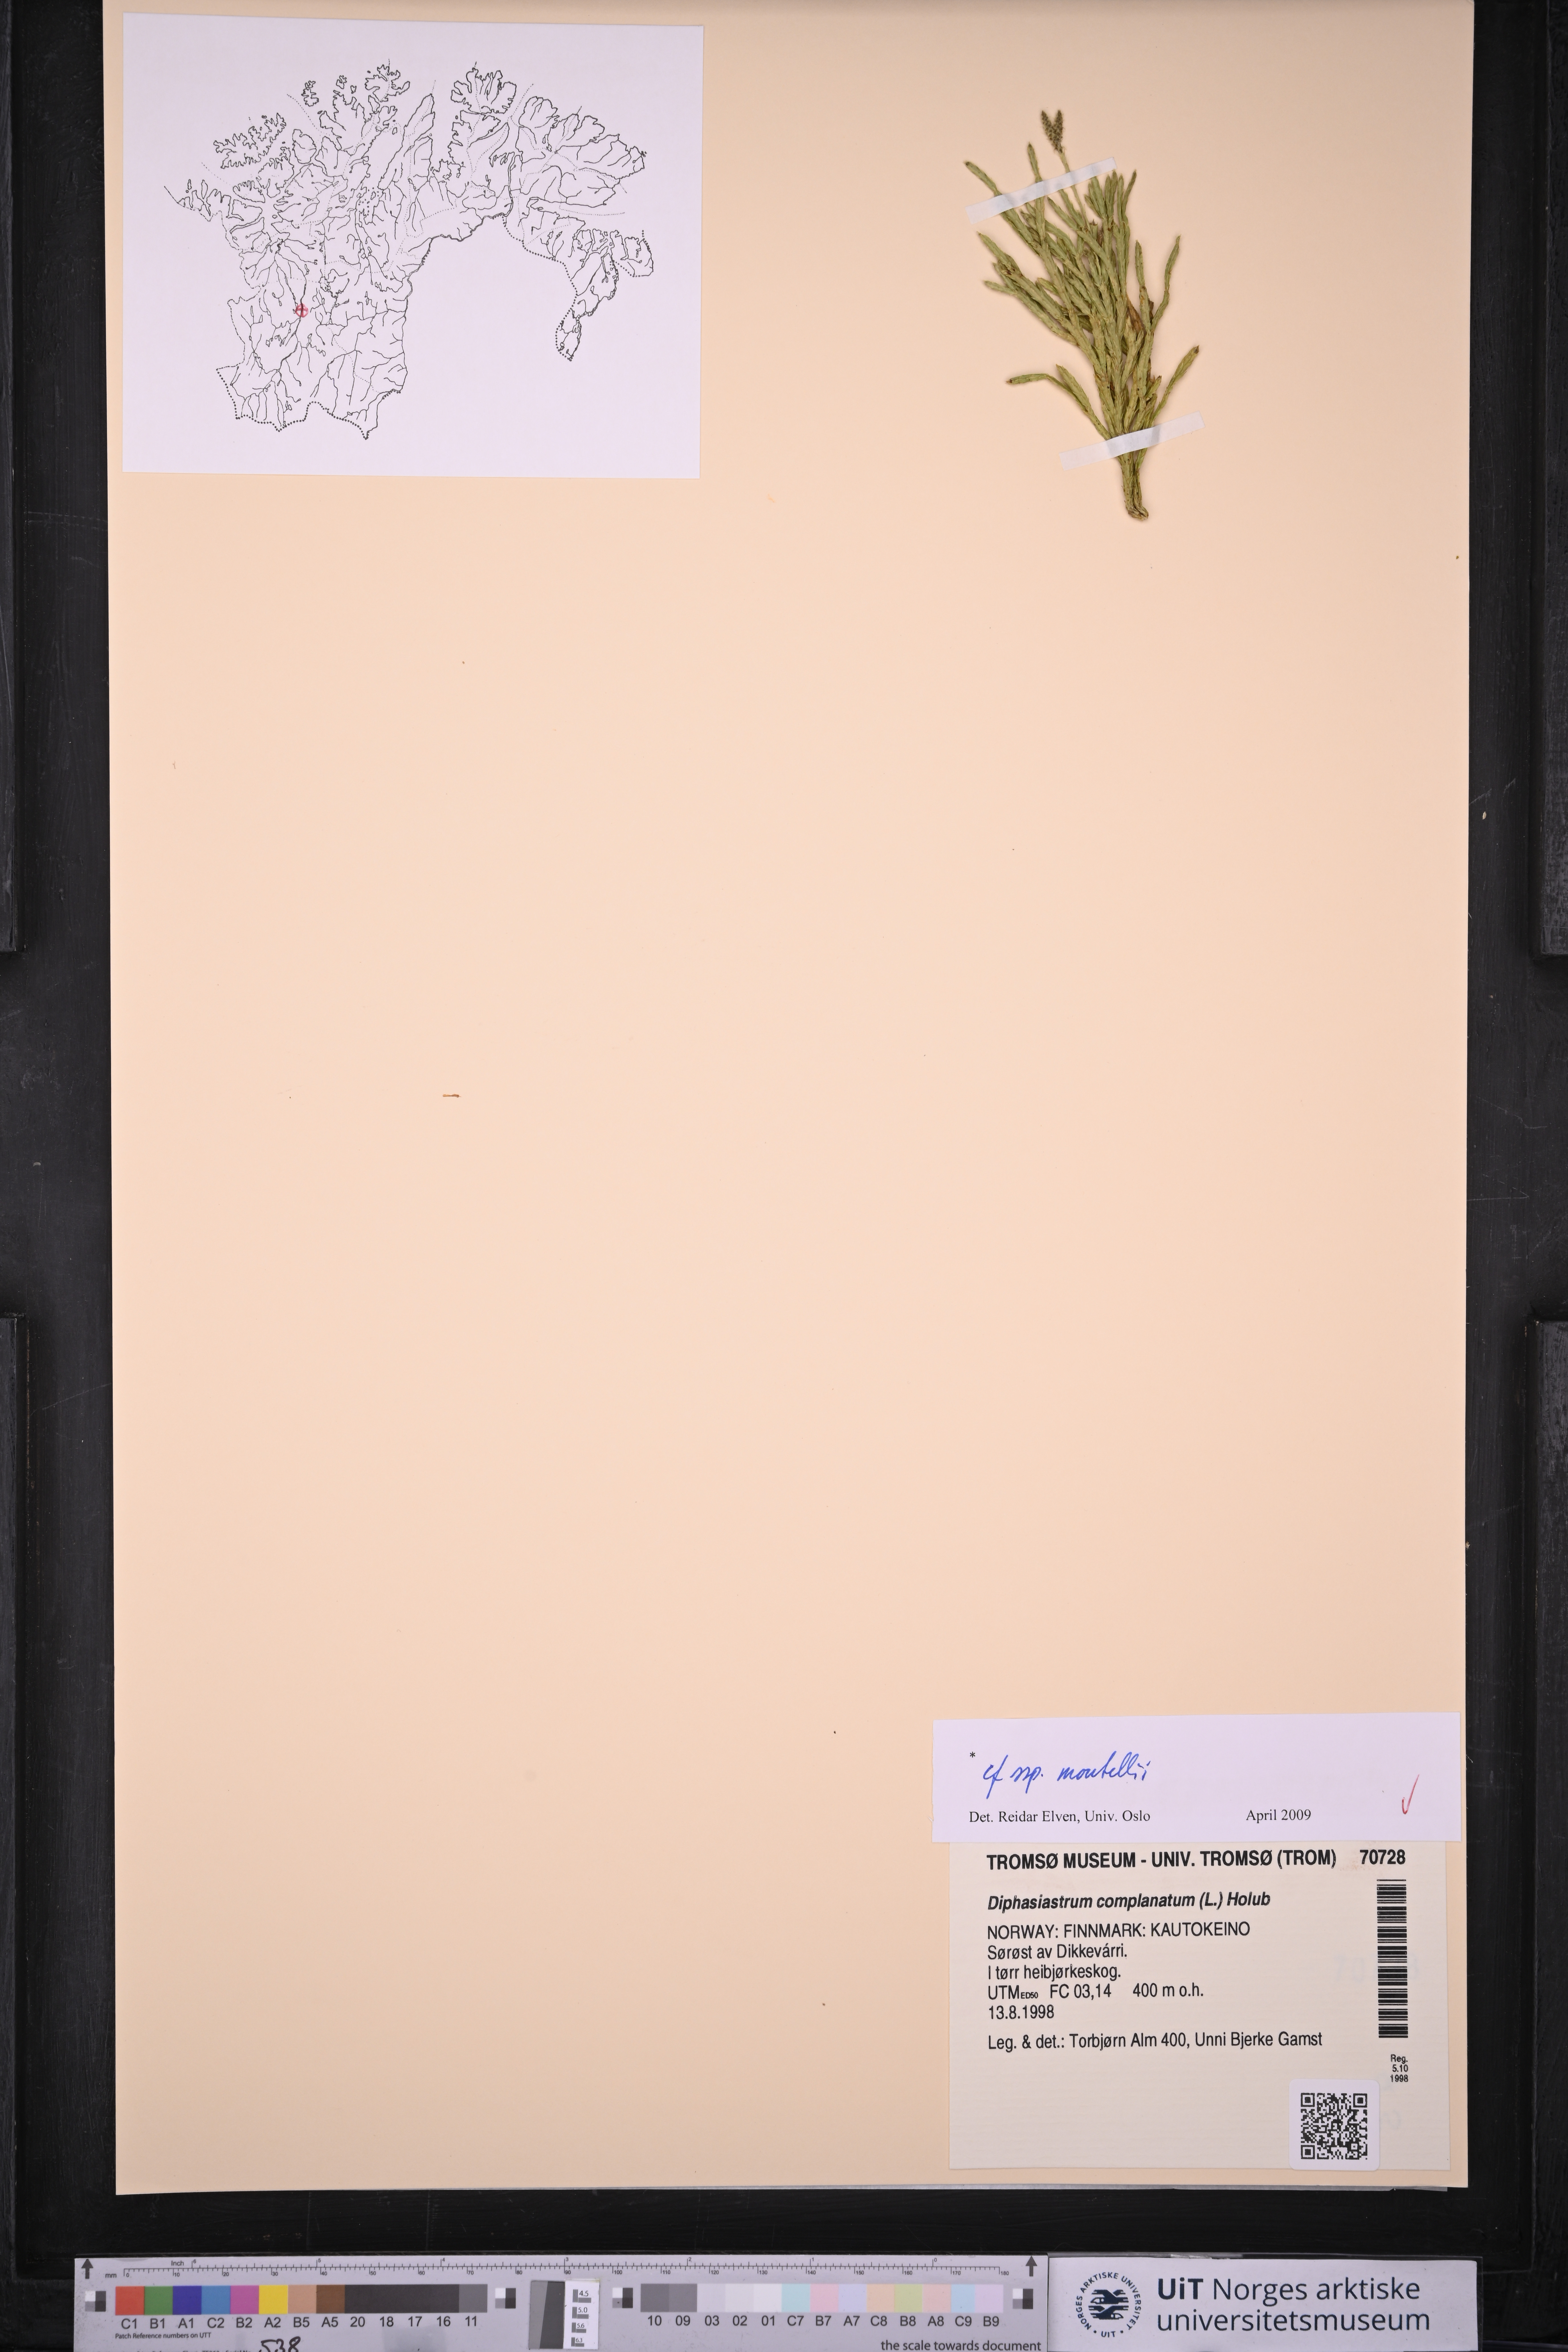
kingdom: Plantae
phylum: Tracheophyta
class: Lycopodiopsida
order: Lycopodiales
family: Lycopodiaceae
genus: Diphasiastrum
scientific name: Diphasiastrum complanatum
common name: Northern running-pine
